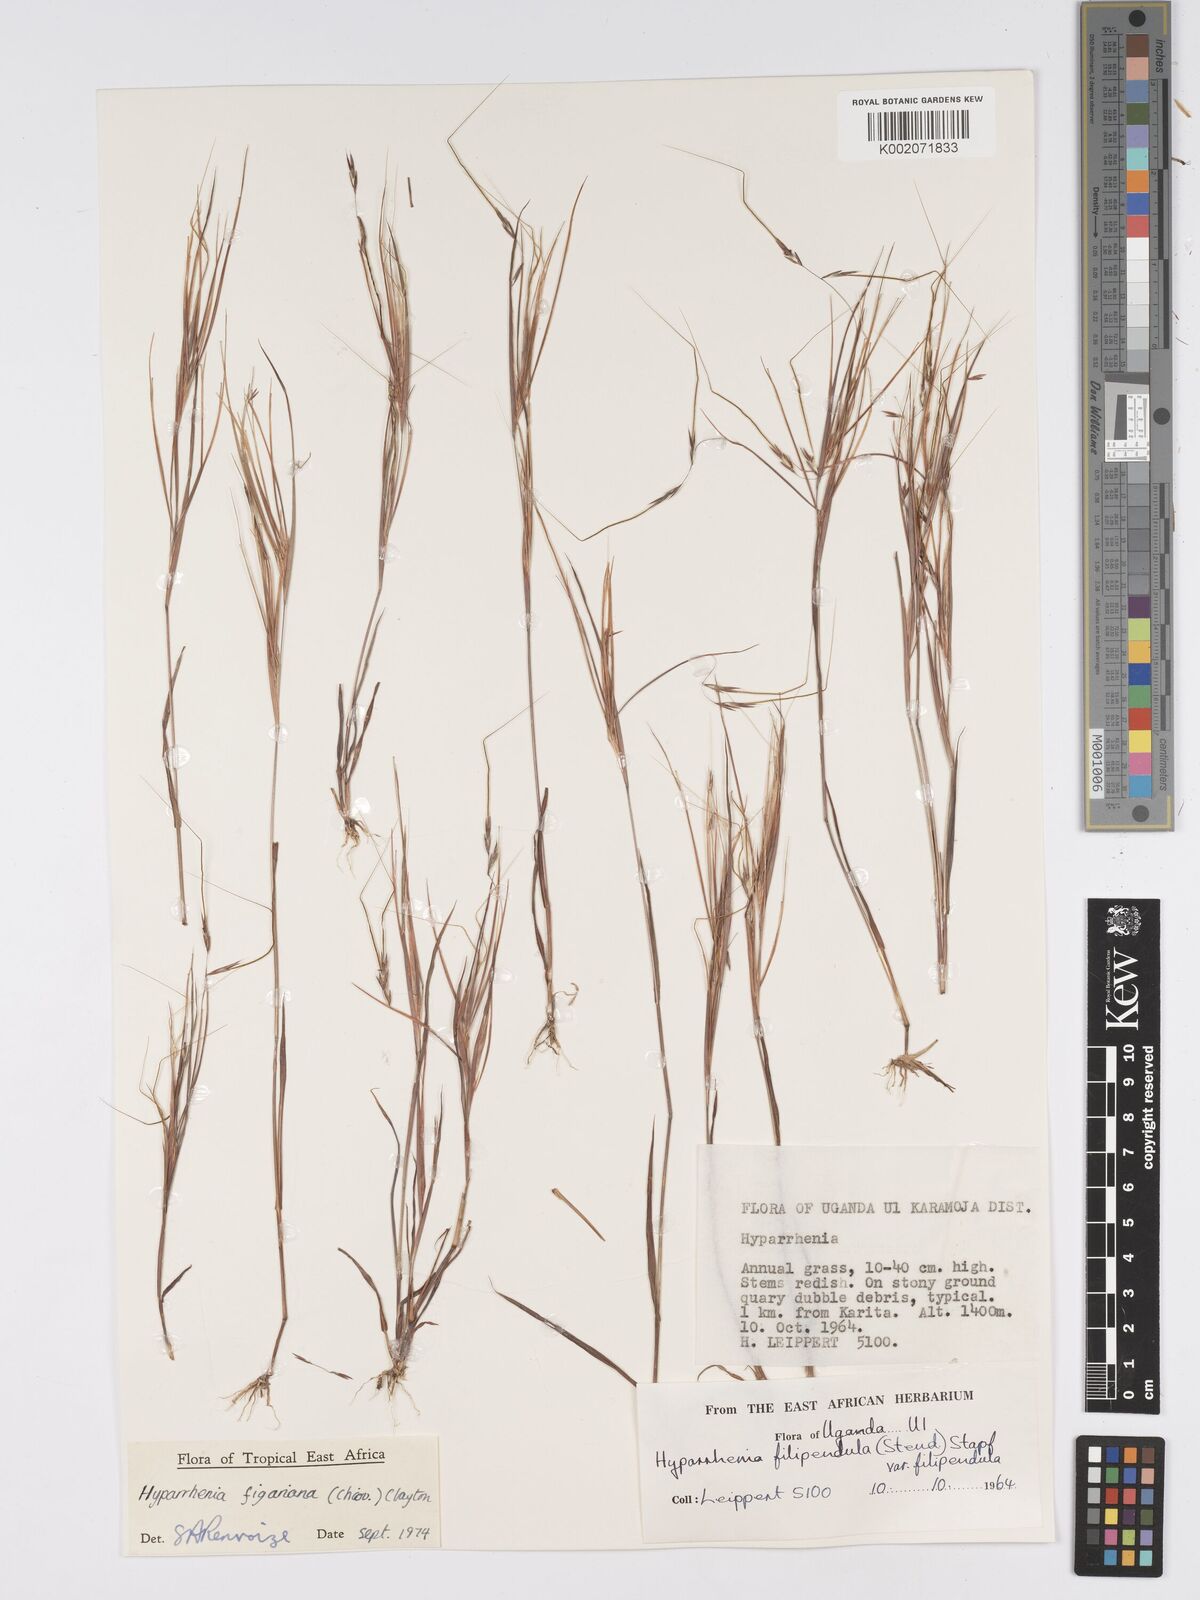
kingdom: Plantae
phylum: Tracheophyta
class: Liliopsida
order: Poales
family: Poaceae
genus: Hyparrhenia
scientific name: Hyparrhenia figariana
